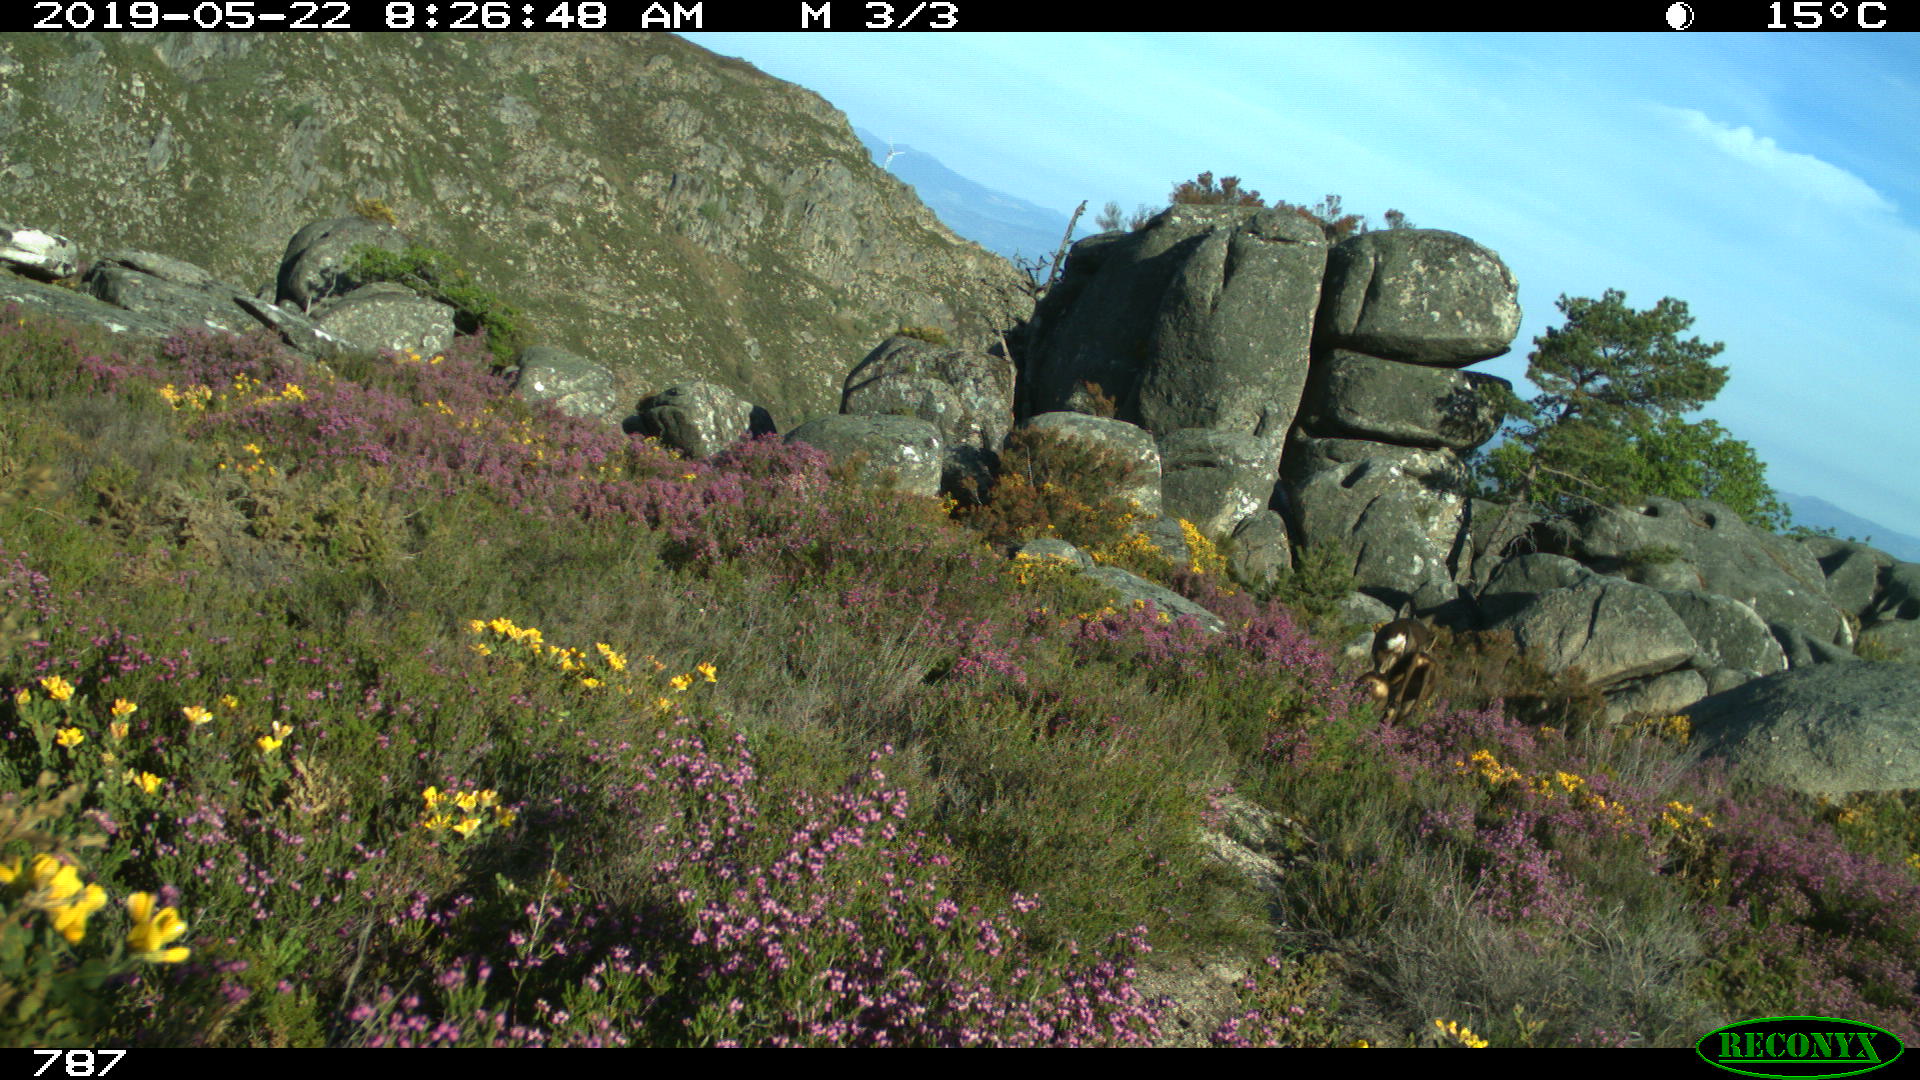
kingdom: Animalia
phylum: Chordata
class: Mammalia
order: Artiodactyla
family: Cervidae
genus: Capreolus
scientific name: Capreolus capreolus
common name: Western roe deer
